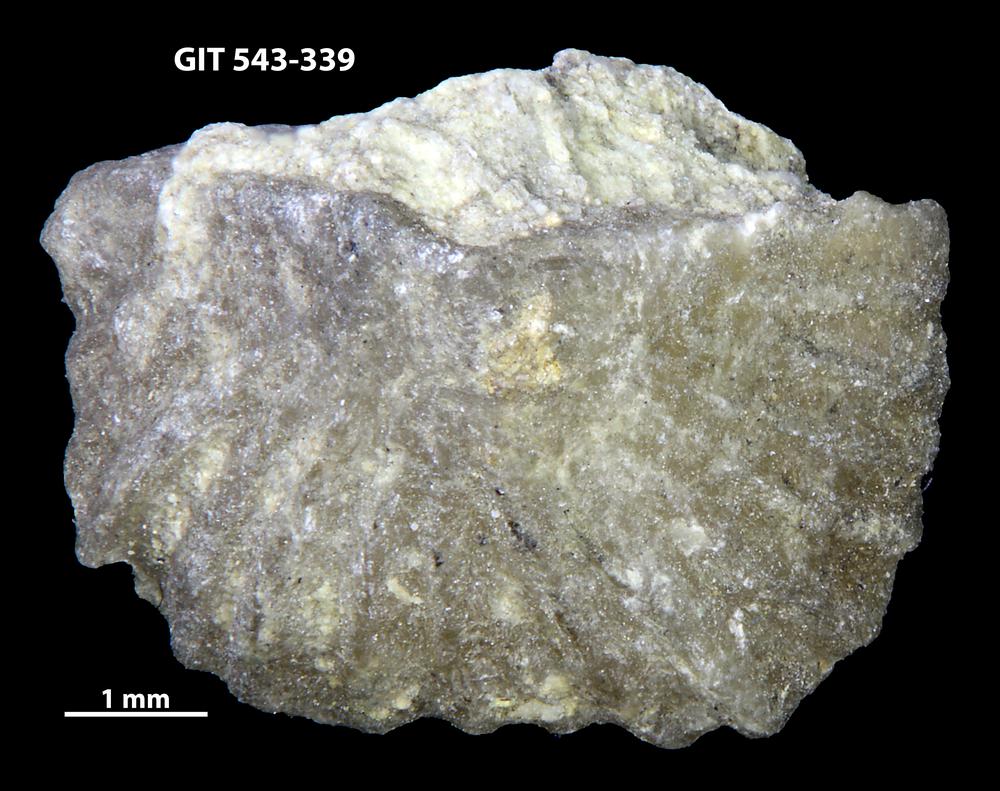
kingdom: Animalia
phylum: Brachiopoda
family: Kullervoidae
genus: Kullervo
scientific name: Kullervo
